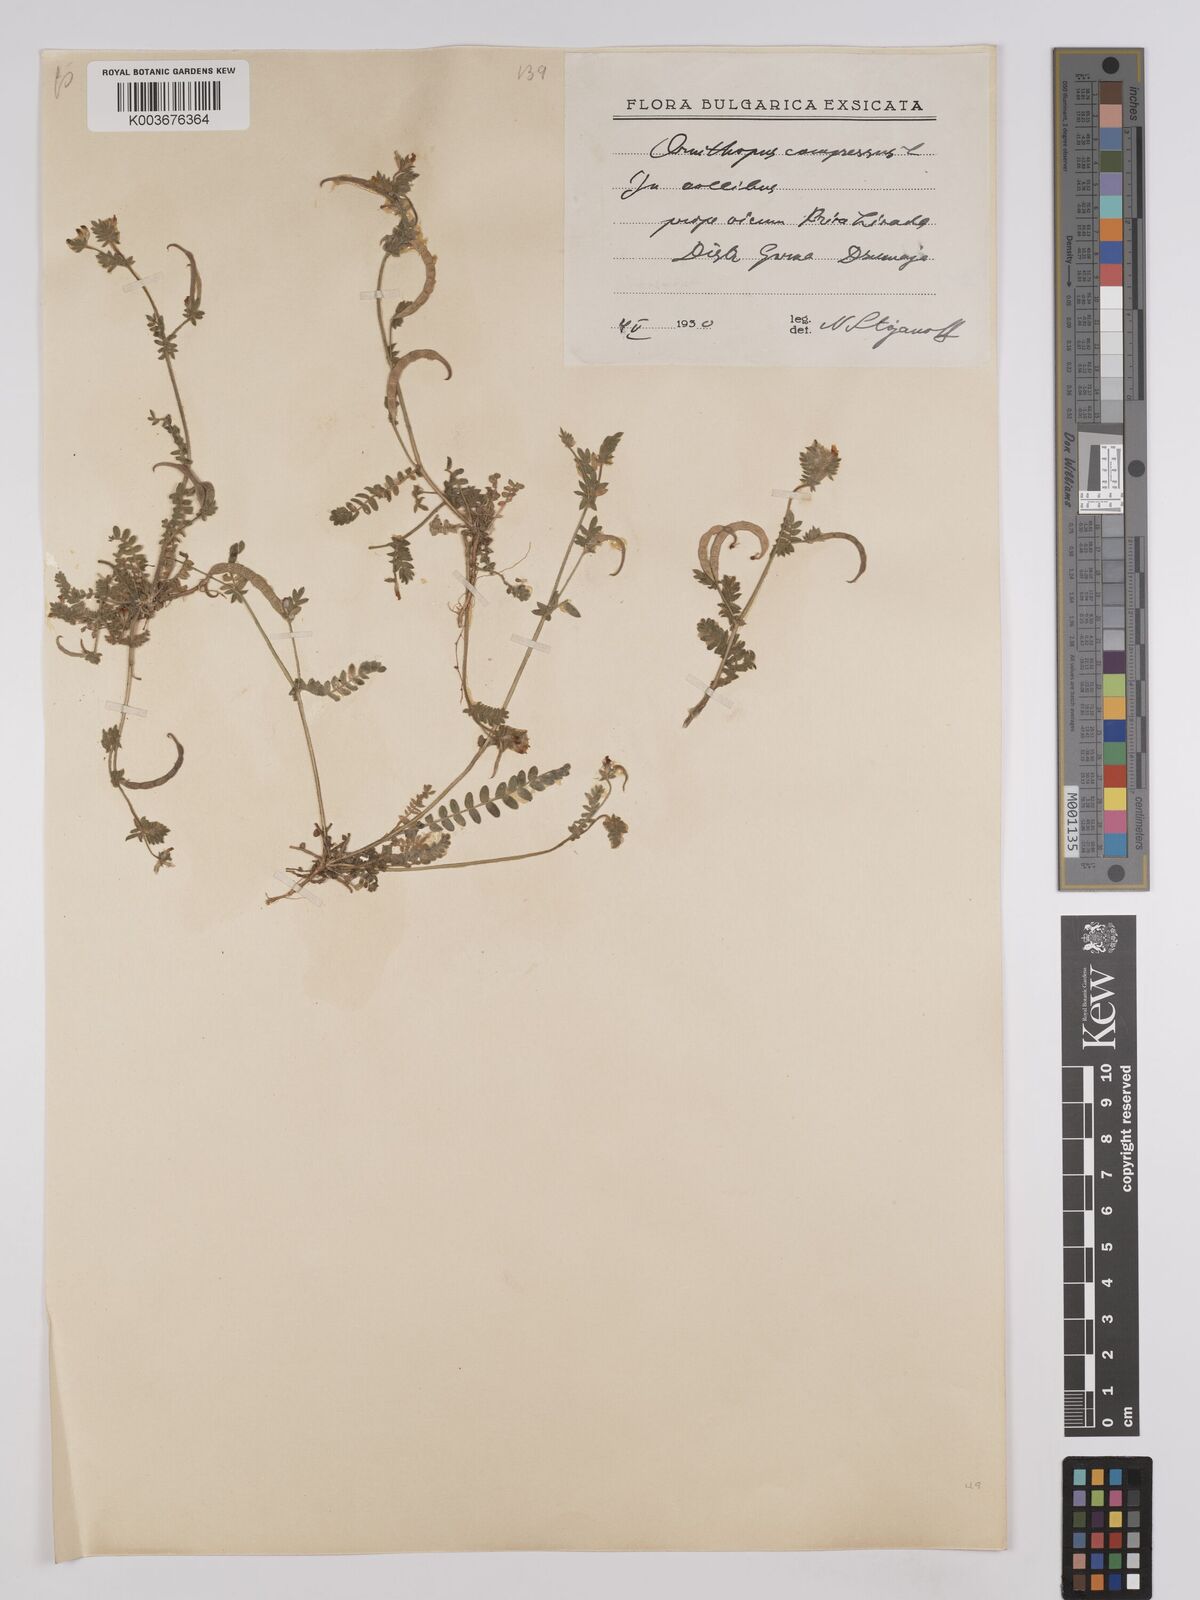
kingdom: Plantae
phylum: Tracheophyta
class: Magnoliopsida
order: Fabales
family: Fabaceae
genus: Ornithopus
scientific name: Ornithopus compressus
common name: Yellow serradella
